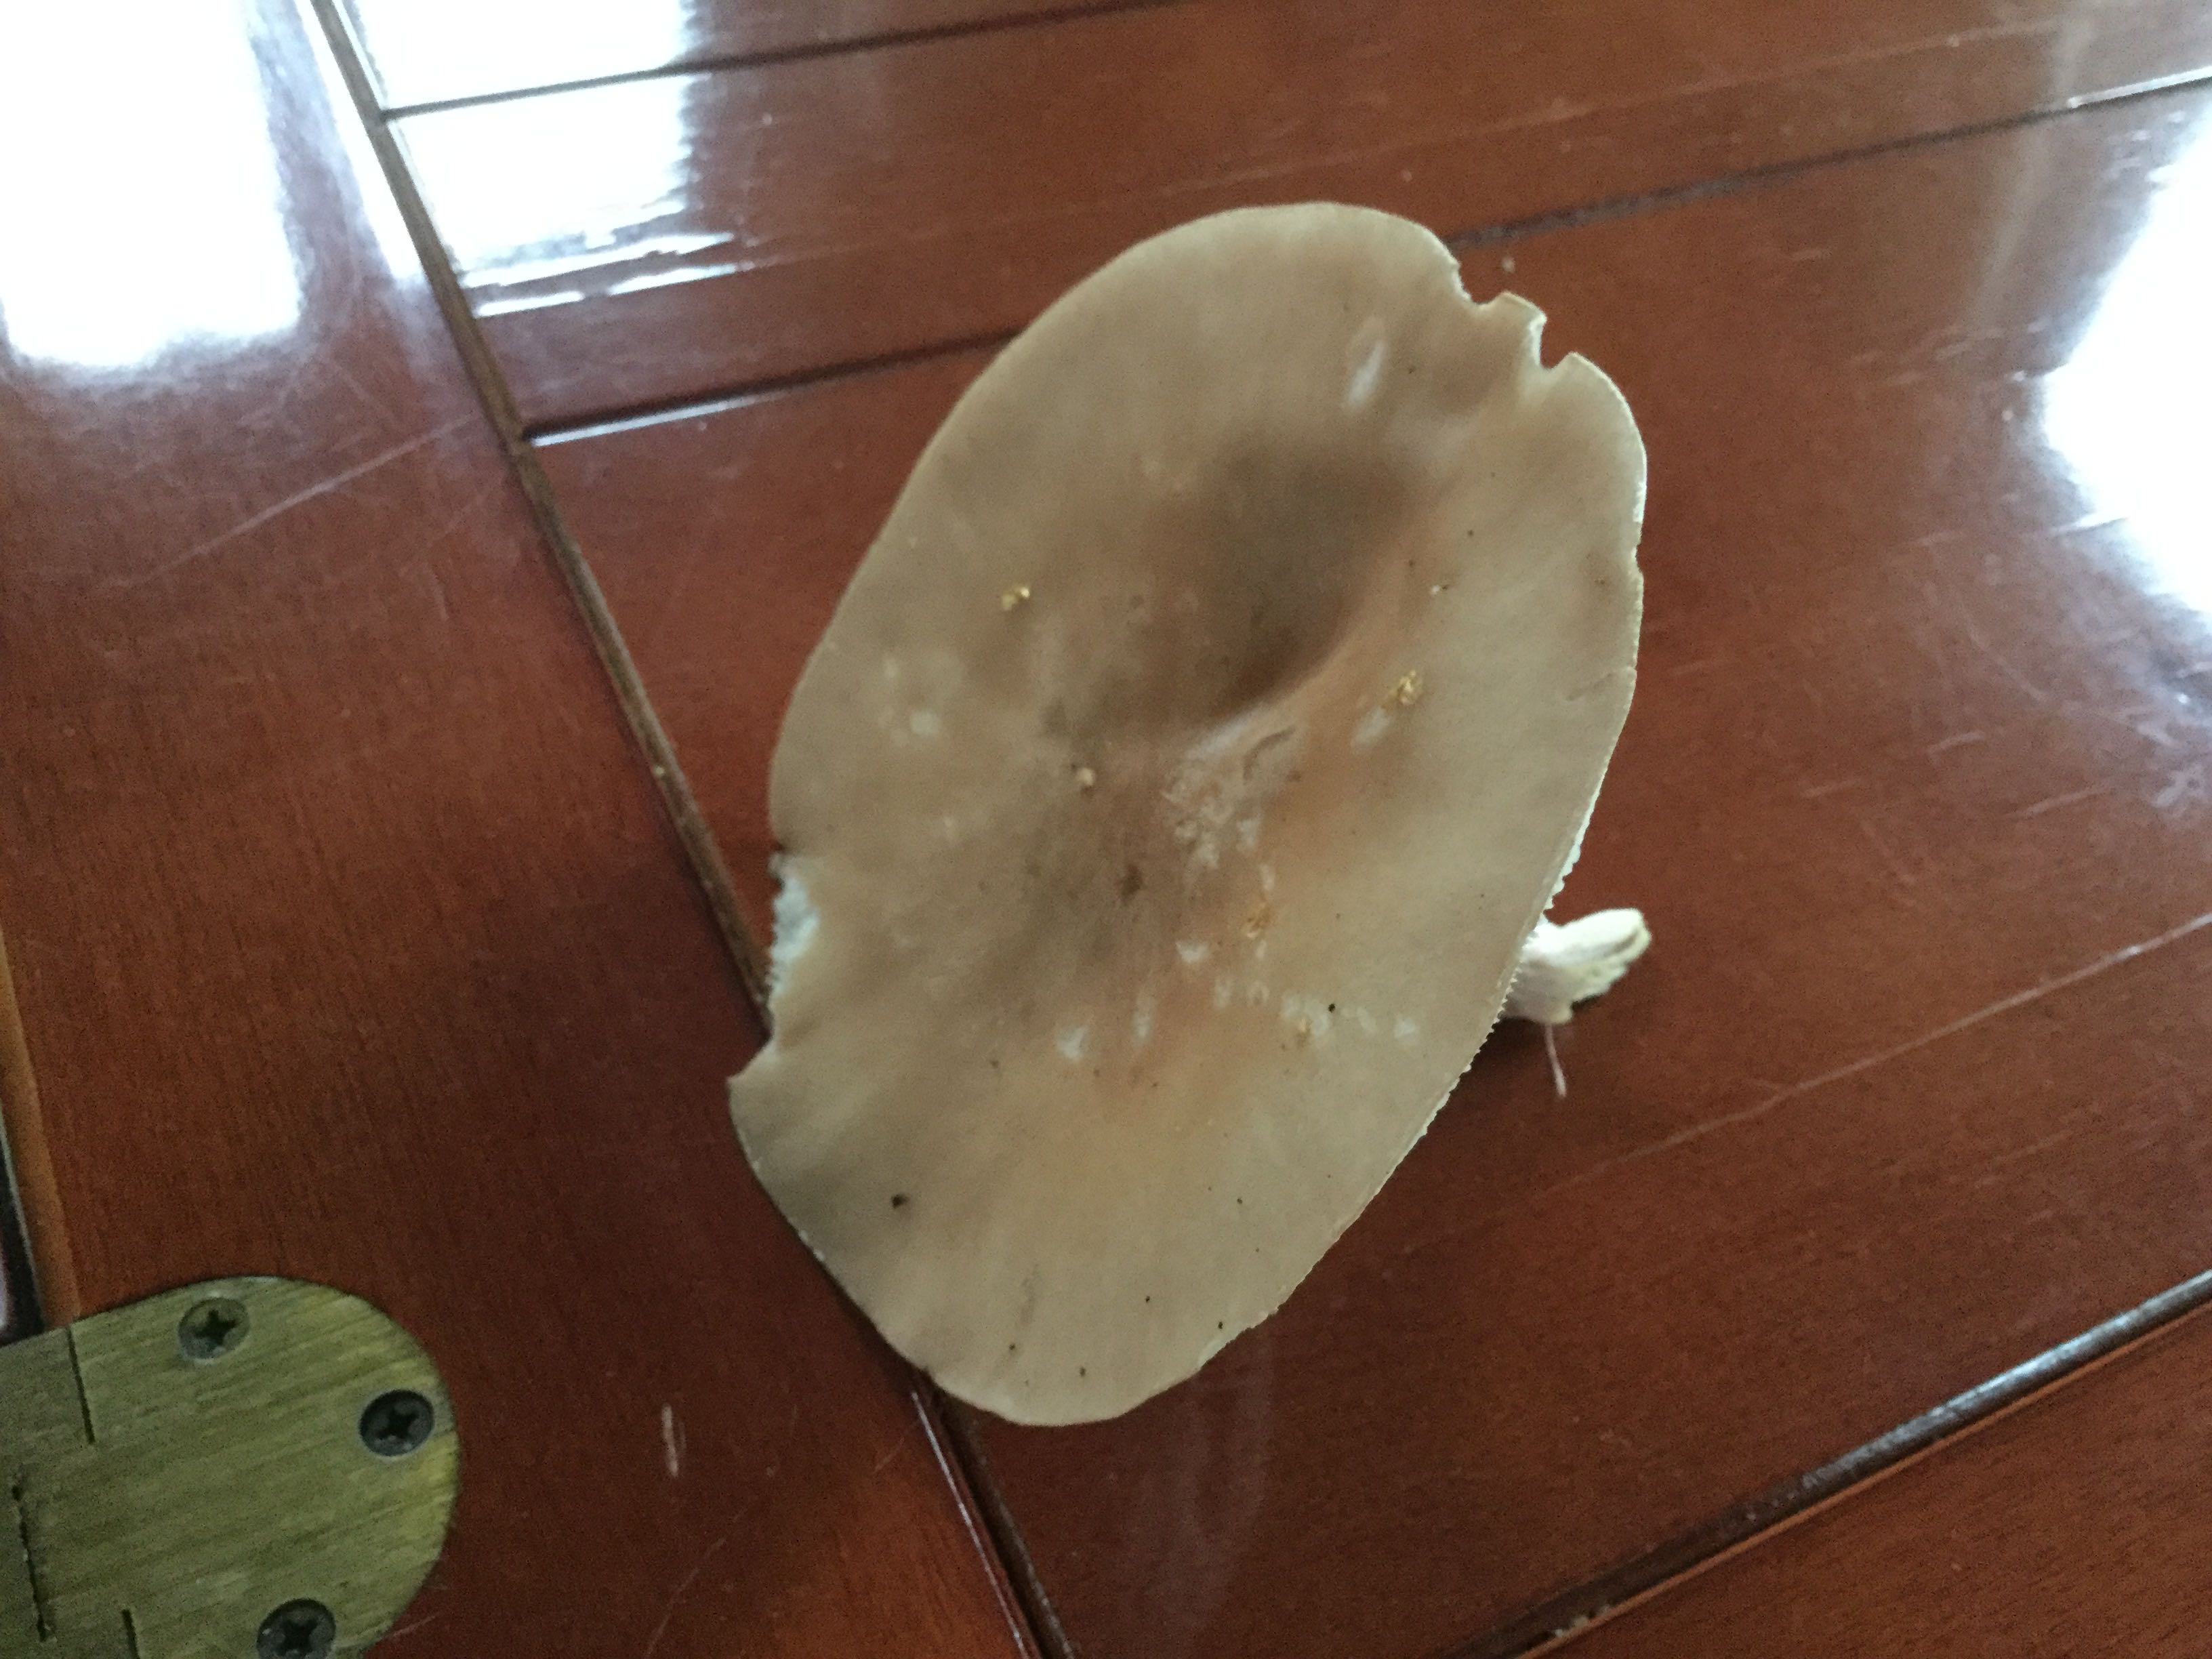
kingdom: Fungi
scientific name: Fungi
